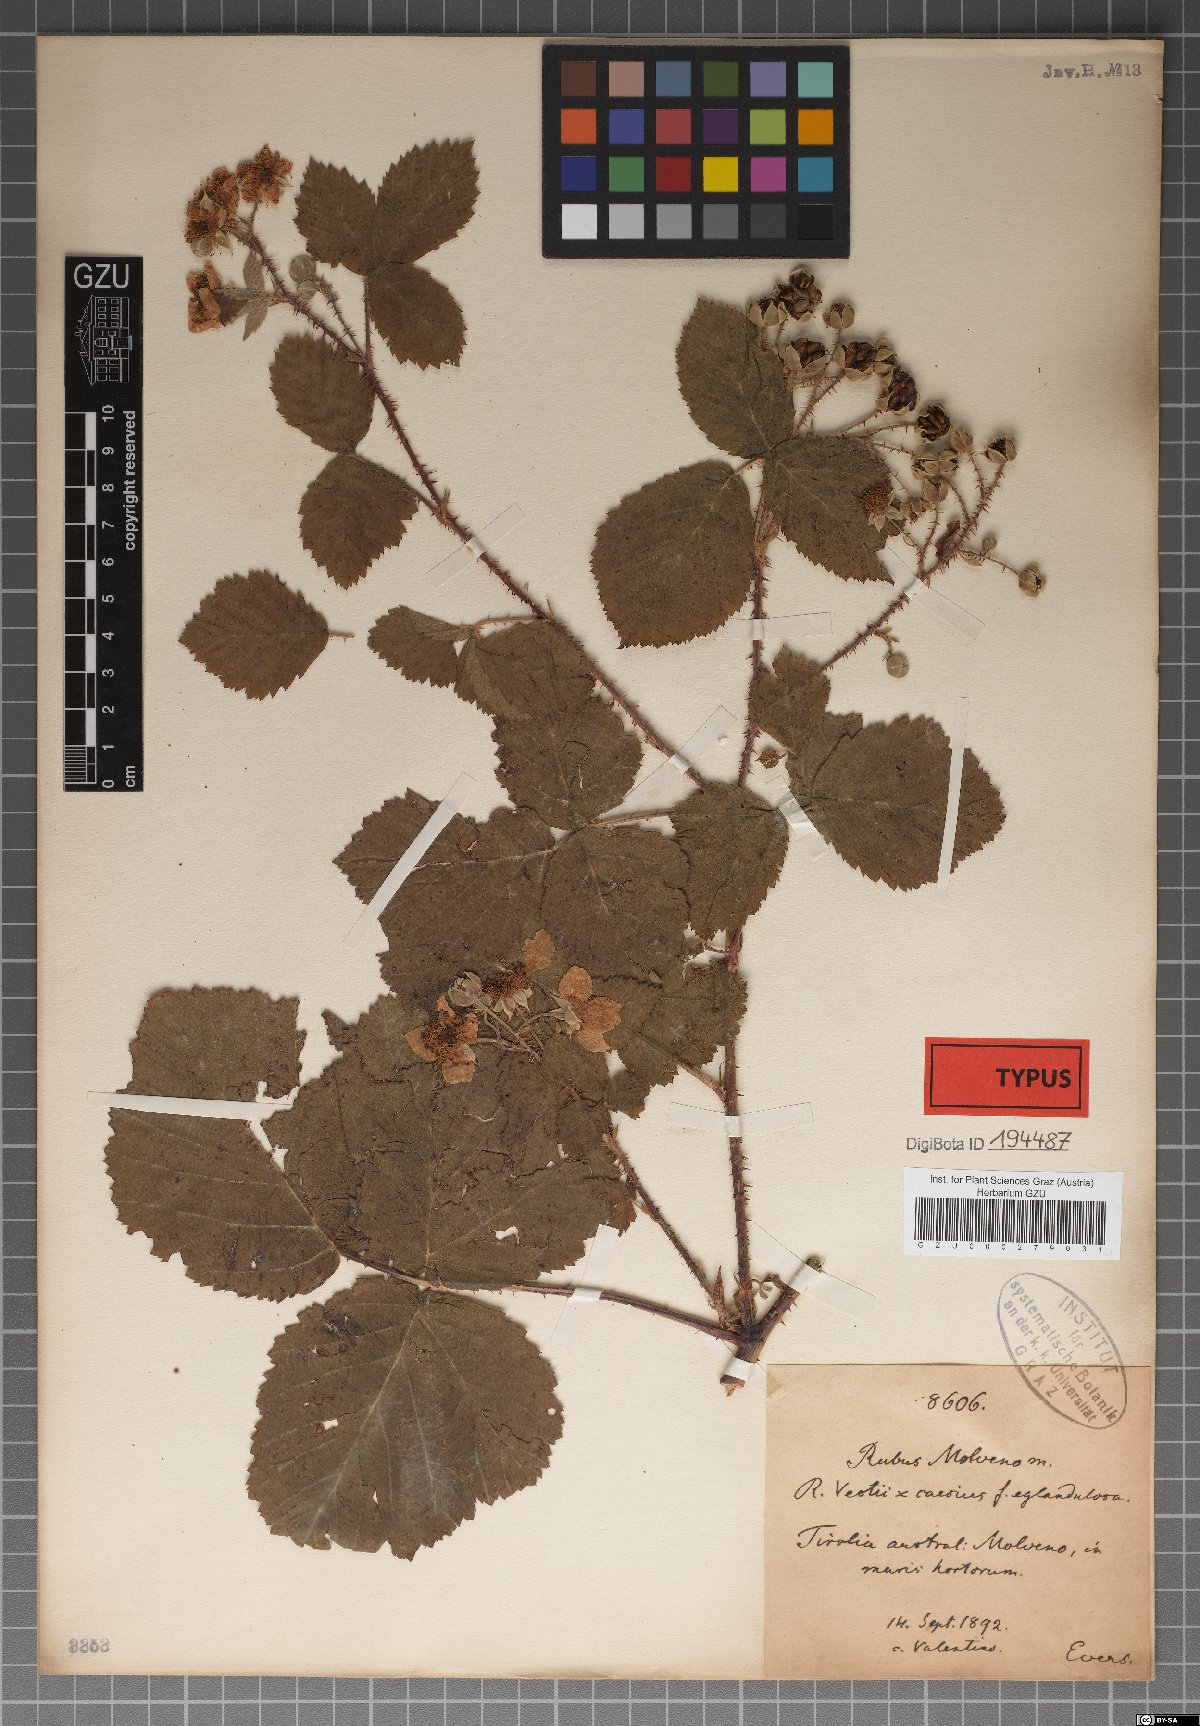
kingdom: Plantae
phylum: Tracheophyta
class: Magnoliopsida
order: Rosales
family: Rosaceae
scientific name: Rosaceae
